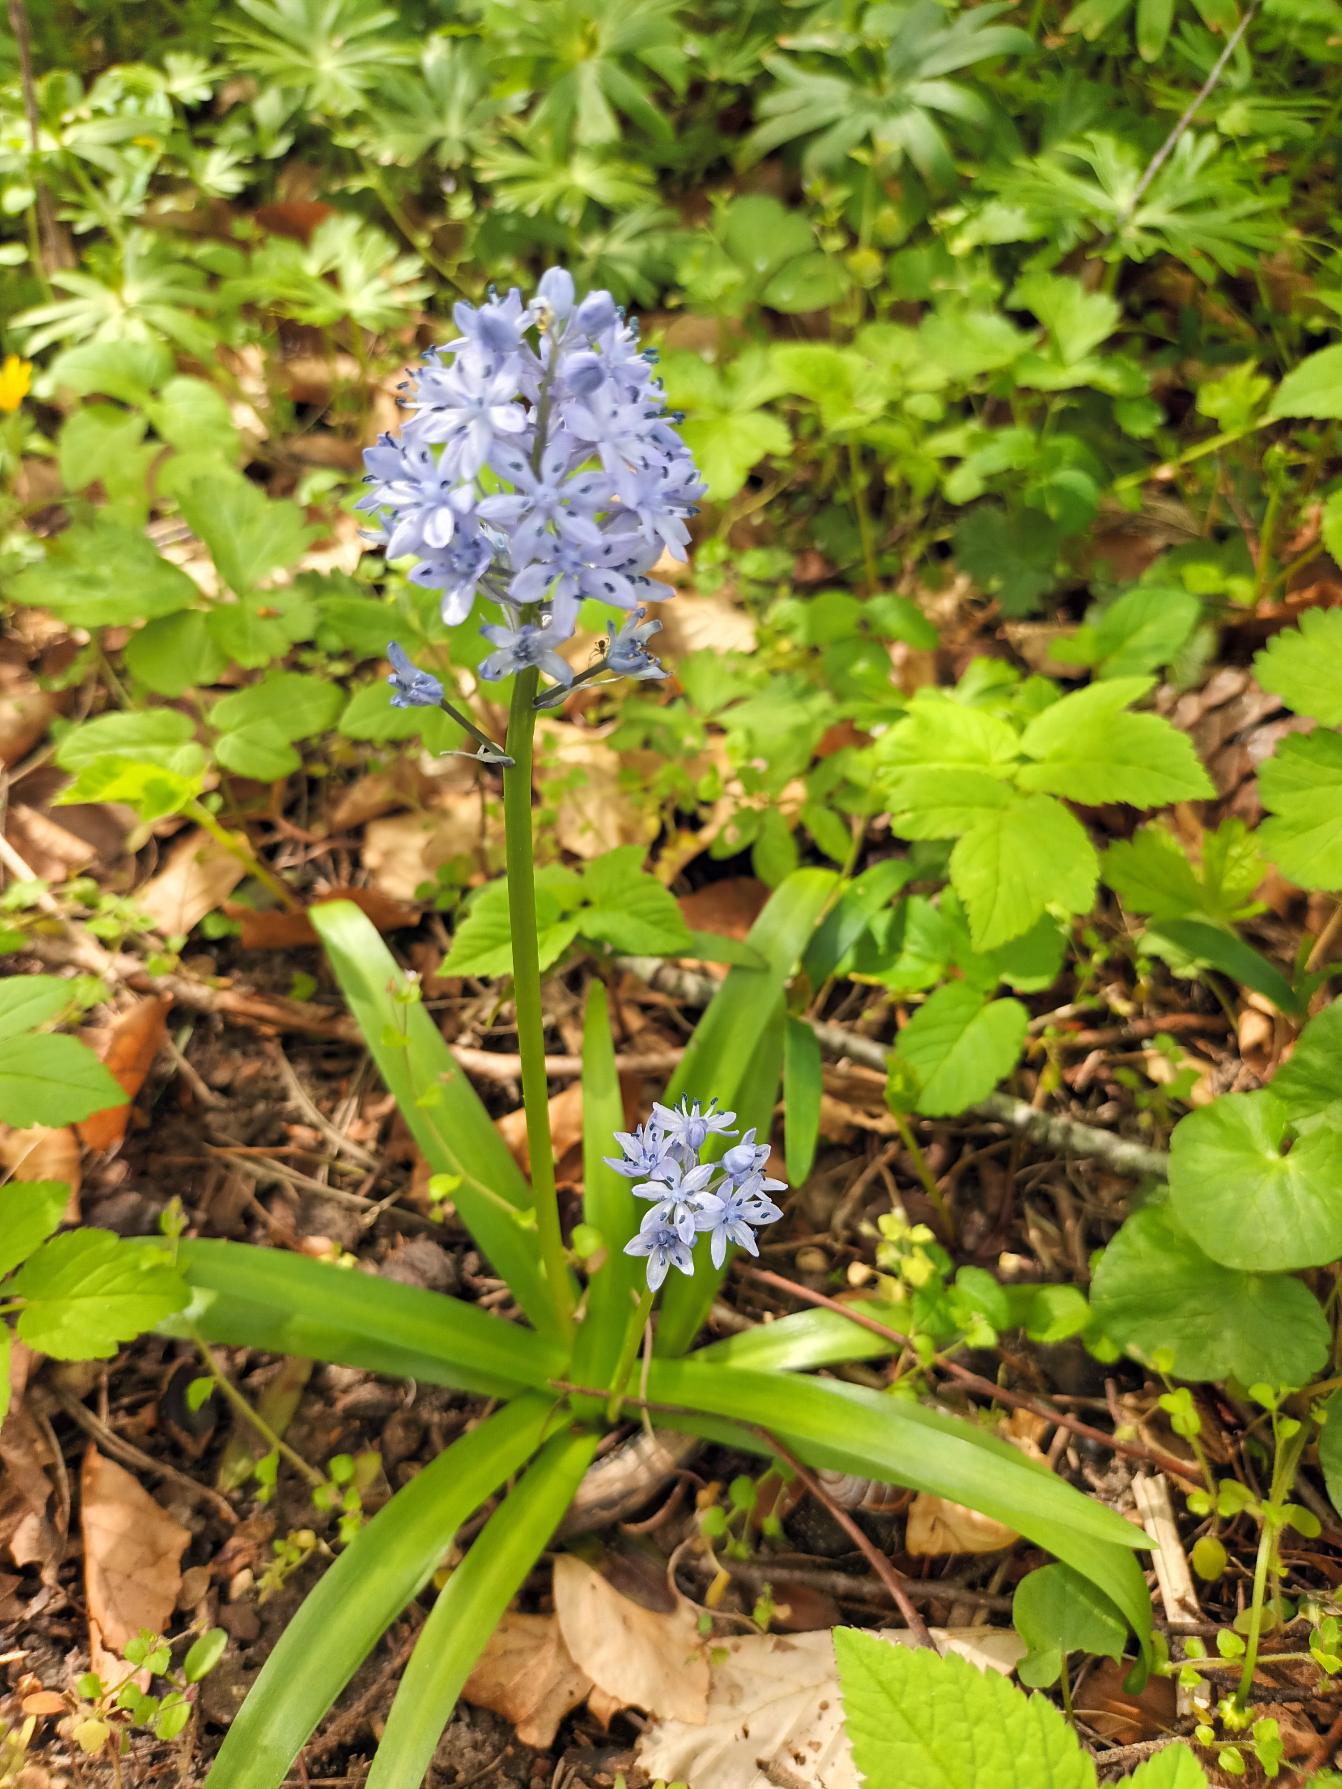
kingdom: Plantae
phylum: Tracheophyta
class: Liliopsida
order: Asparagales
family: Asparagaceae
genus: Hyacinthoides
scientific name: Hyacinthoides italica
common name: Italiensk skilla
